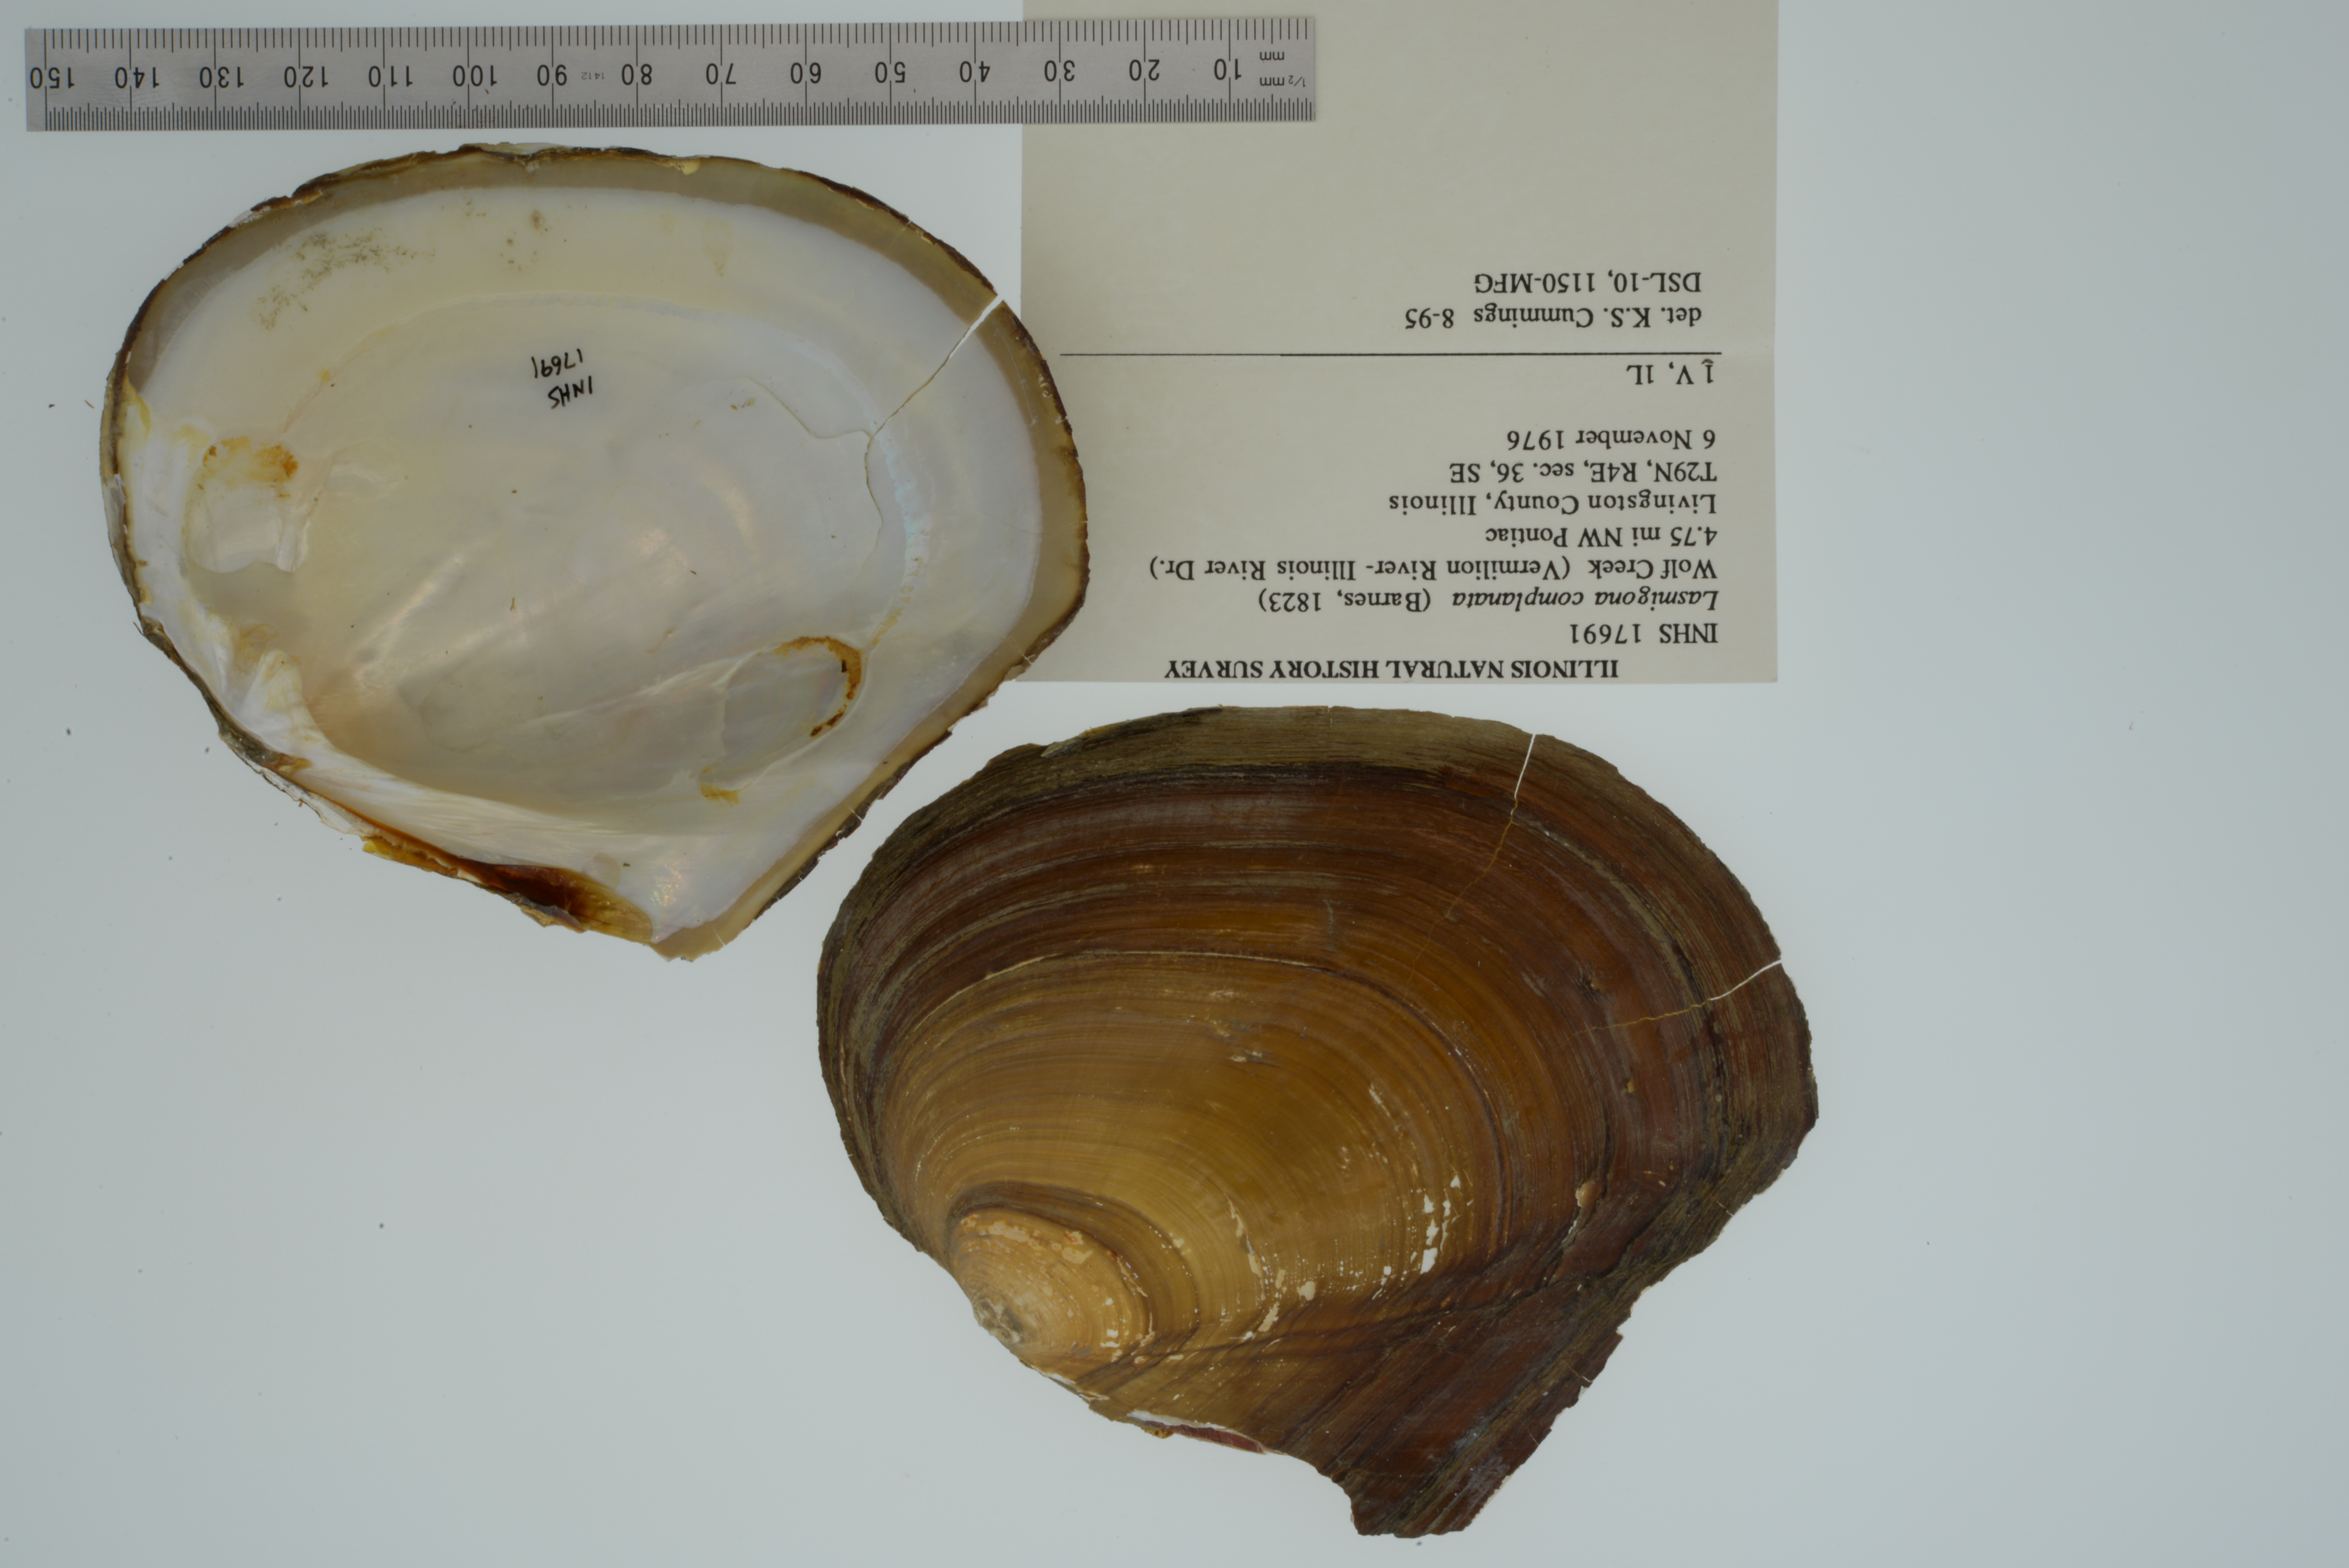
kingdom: Animalia
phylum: Mollusca
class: Bivalvia
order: Unionida
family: Unionidae
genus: Lasmigona
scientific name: Lasmigona complanata
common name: White heelsplitter
